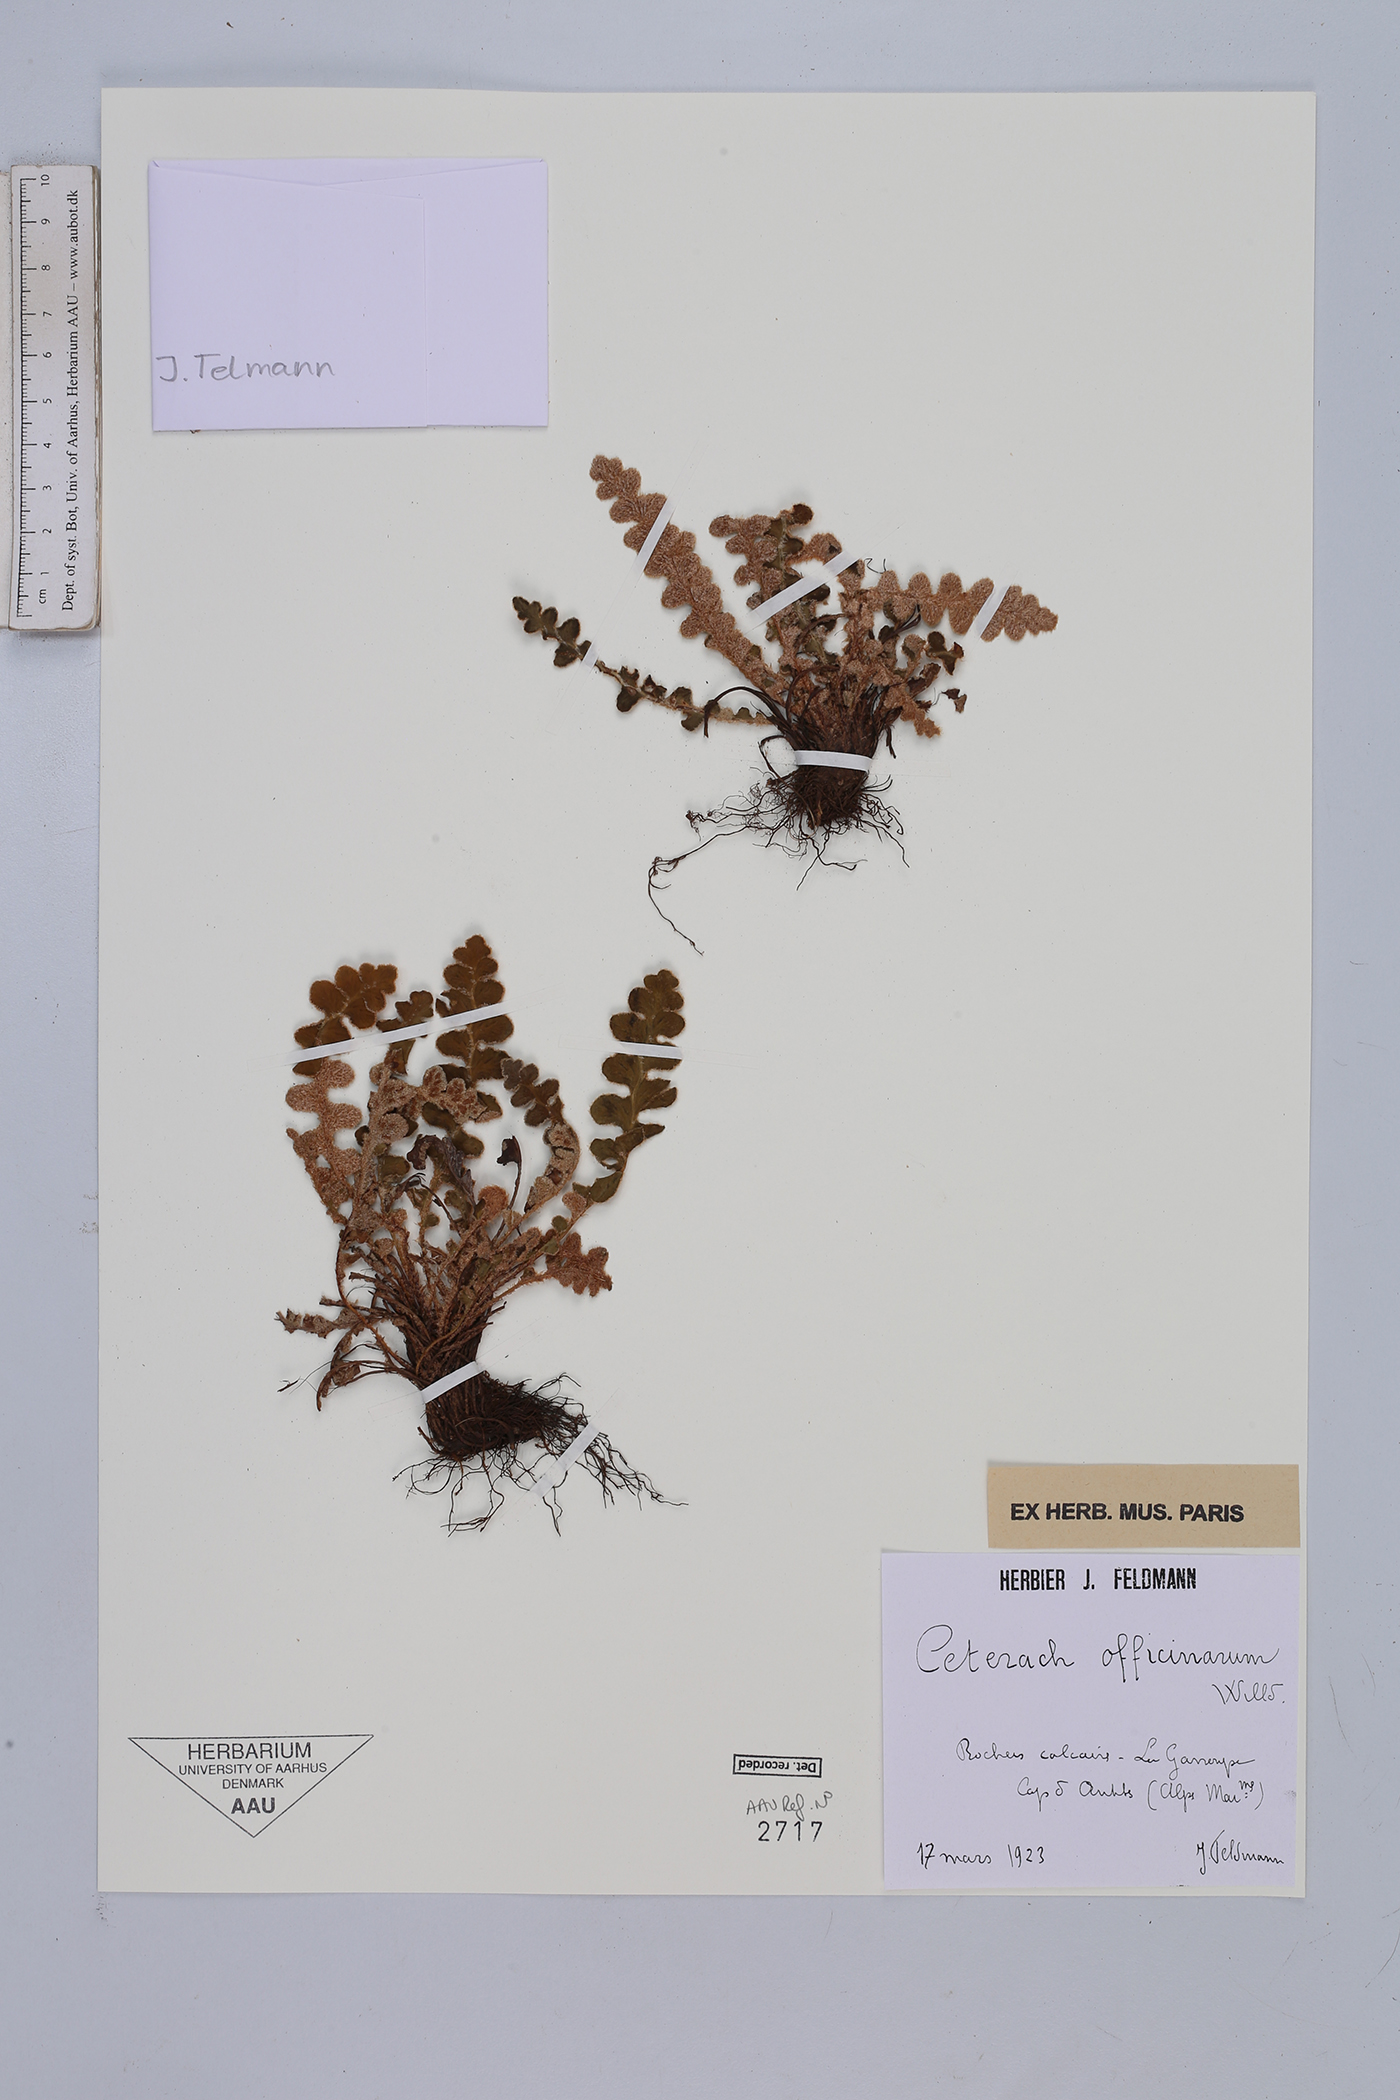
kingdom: Plantae
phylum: Tracheophyta
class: Polypodiopsida
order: Polypodiales
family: Aspleniaceae
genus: Asplenium
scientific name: Asplenium ceterach
